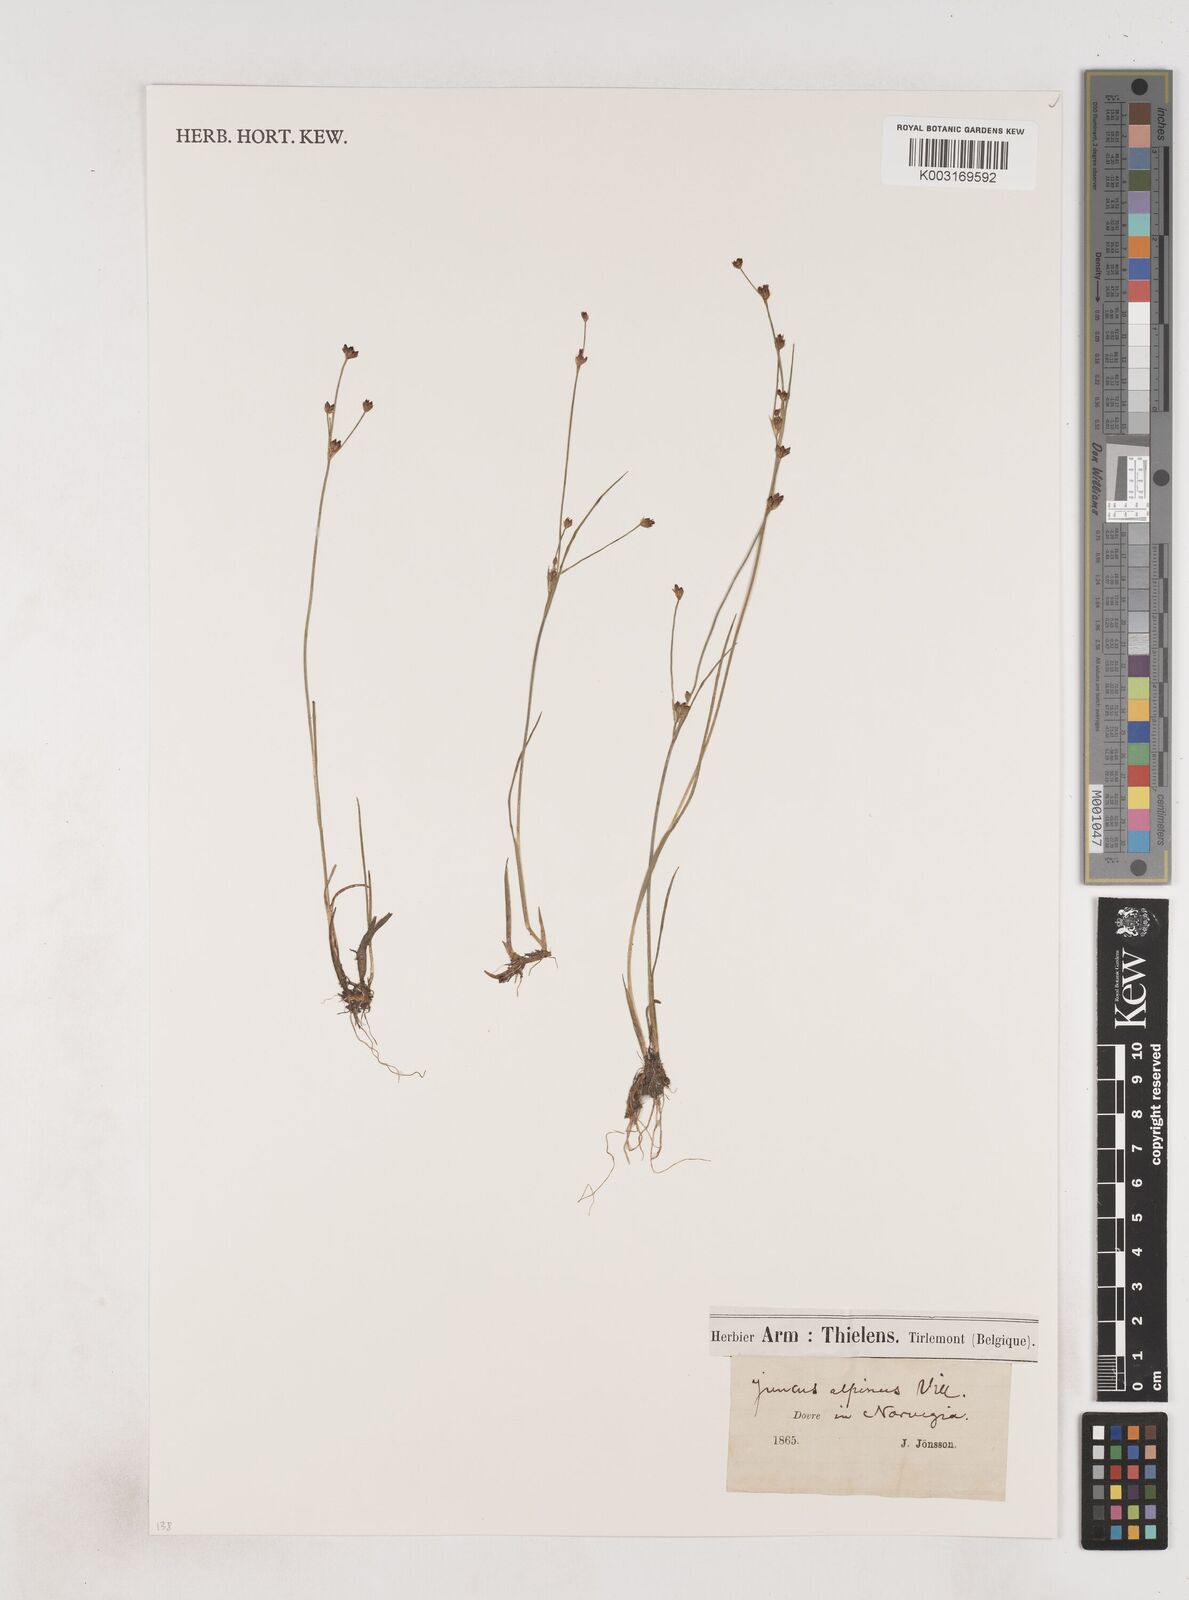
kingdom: Plantae
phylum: Tracheophyta
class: Liliopsida
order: Poales
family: Juncaceae
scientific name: Juncaceae
